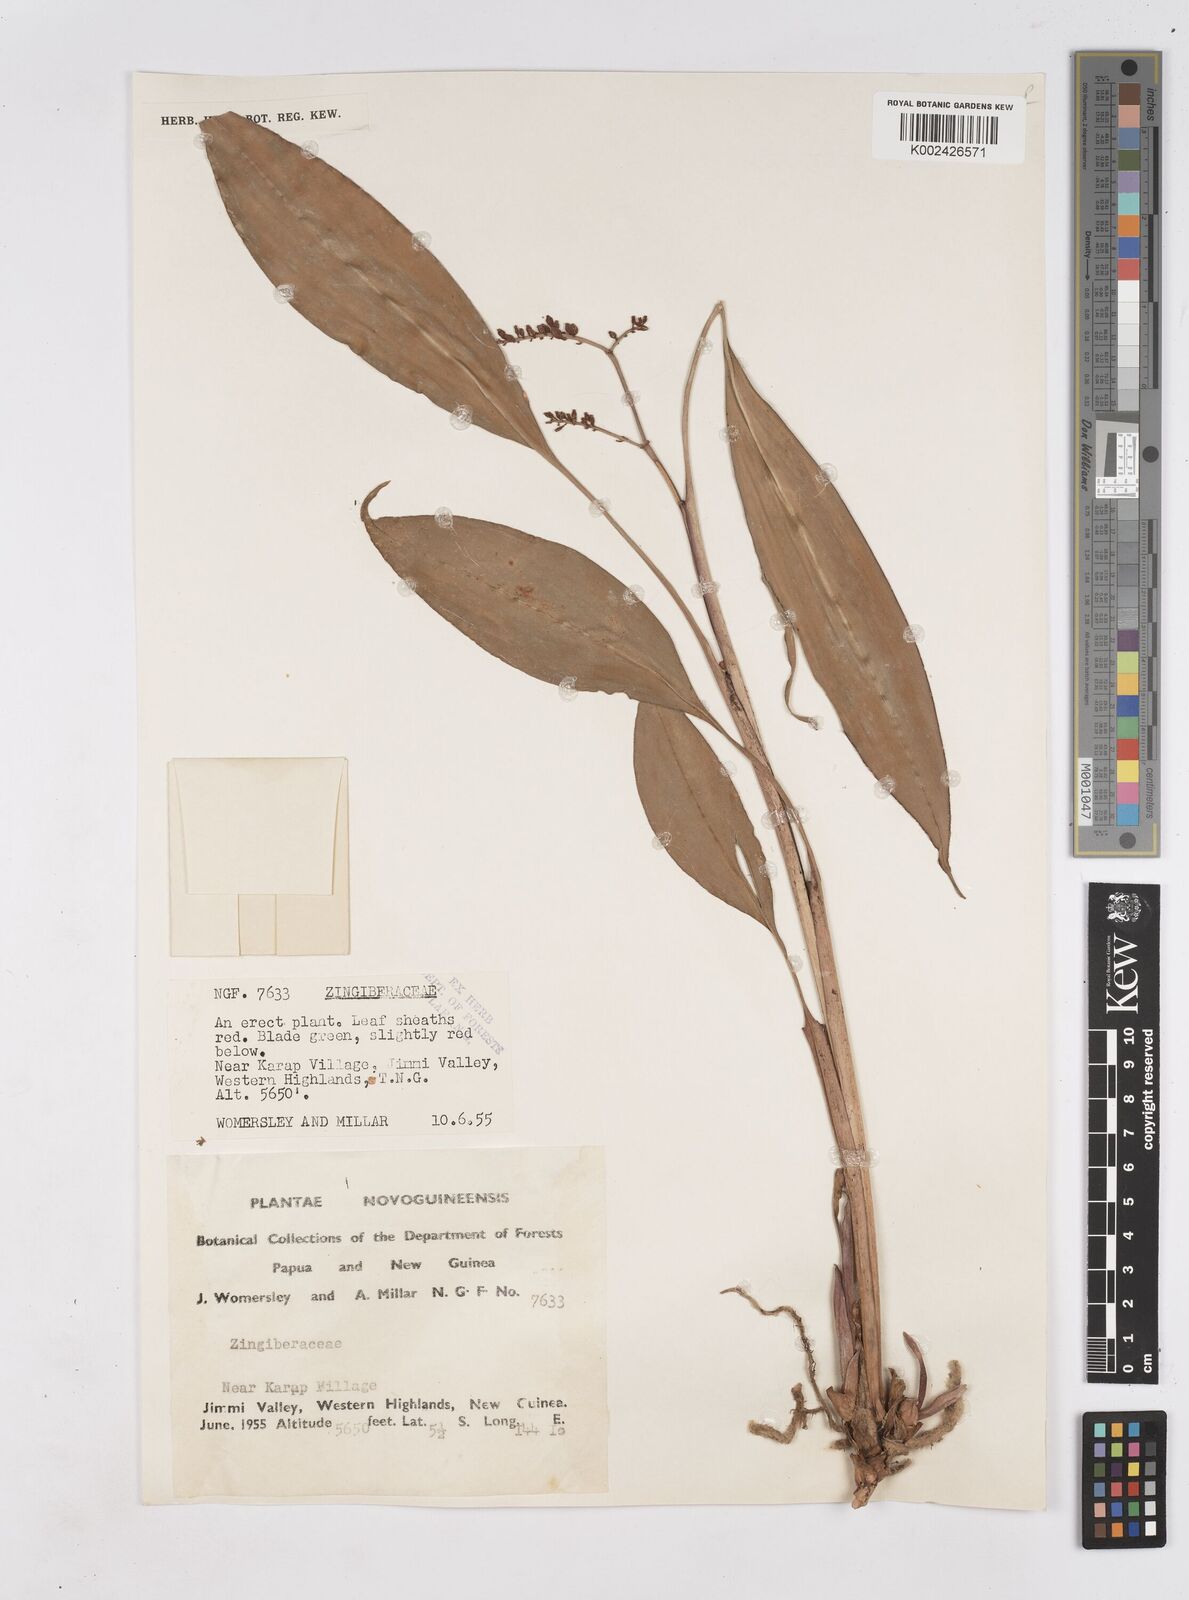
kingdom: Plantae
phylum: Tracheophyta
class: Liliopsida
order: Zingiberales
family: Zingiberaceae
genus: Riedelia
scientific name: Riedelia
